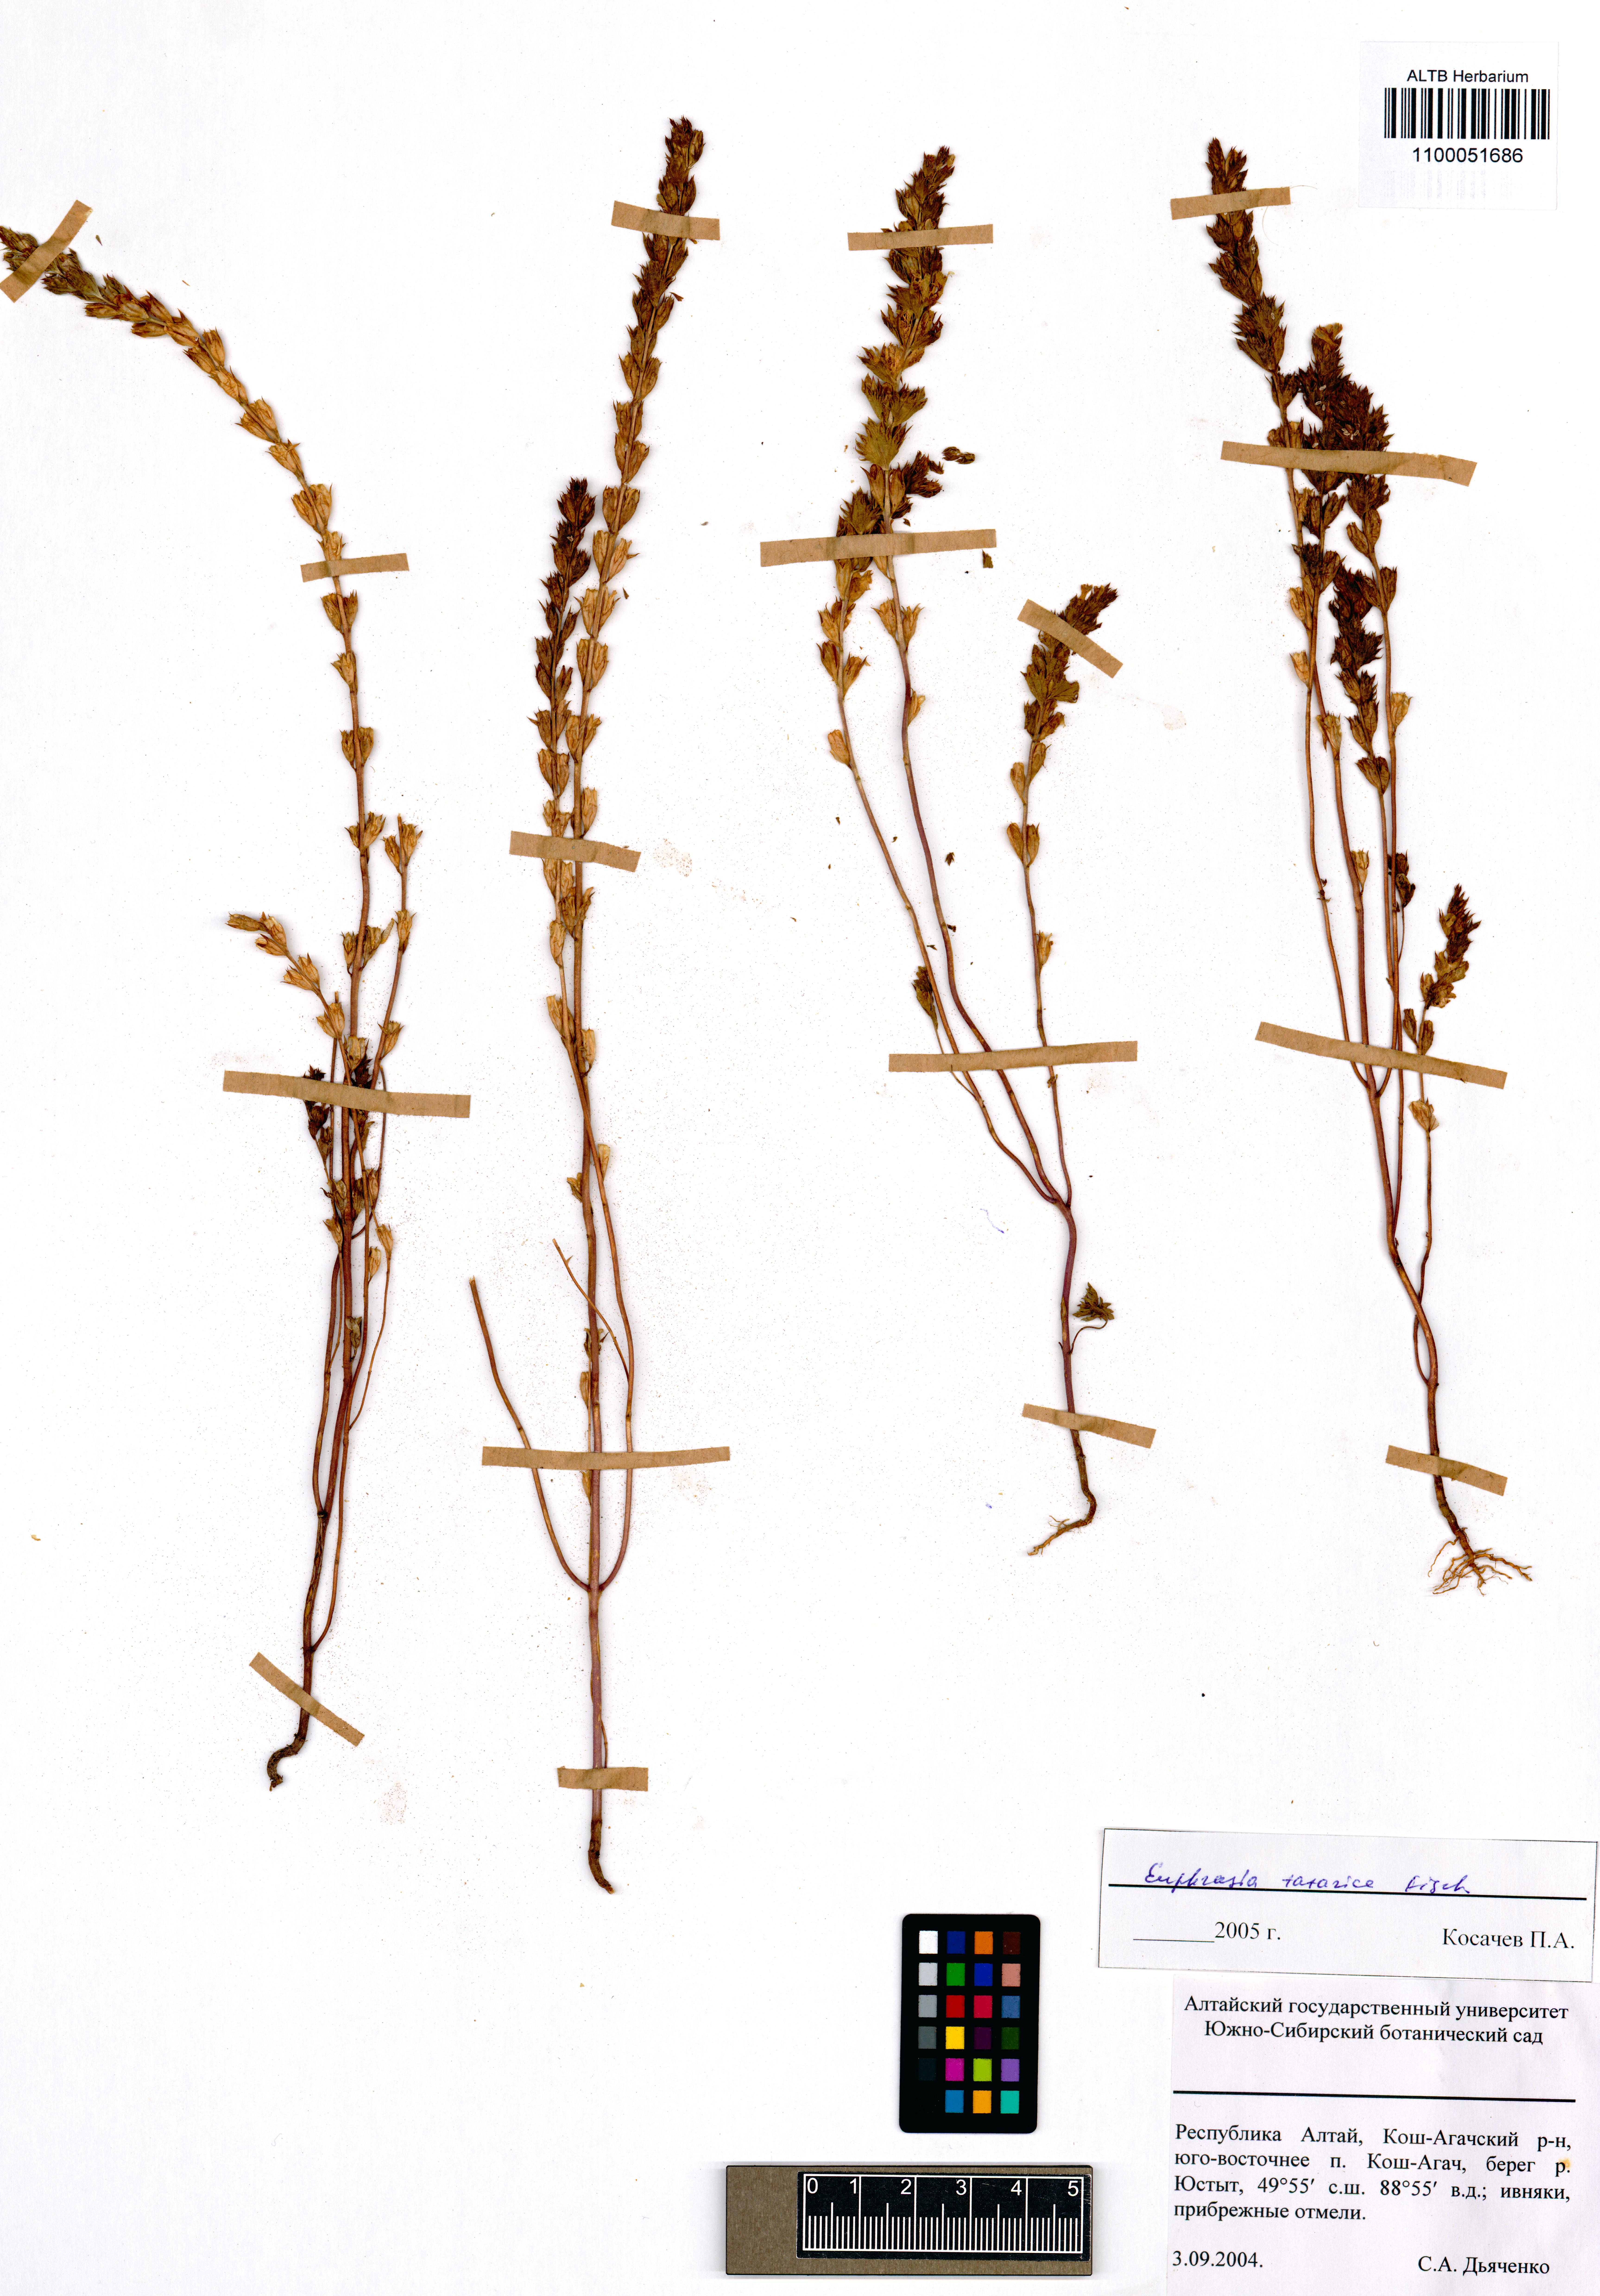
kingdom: Plantae
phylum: Tracheophyta
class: Magnoliopsida
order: Lamiales
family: Orobanchaceae
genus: Euphrasia
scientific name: Euphrasia pectinata
